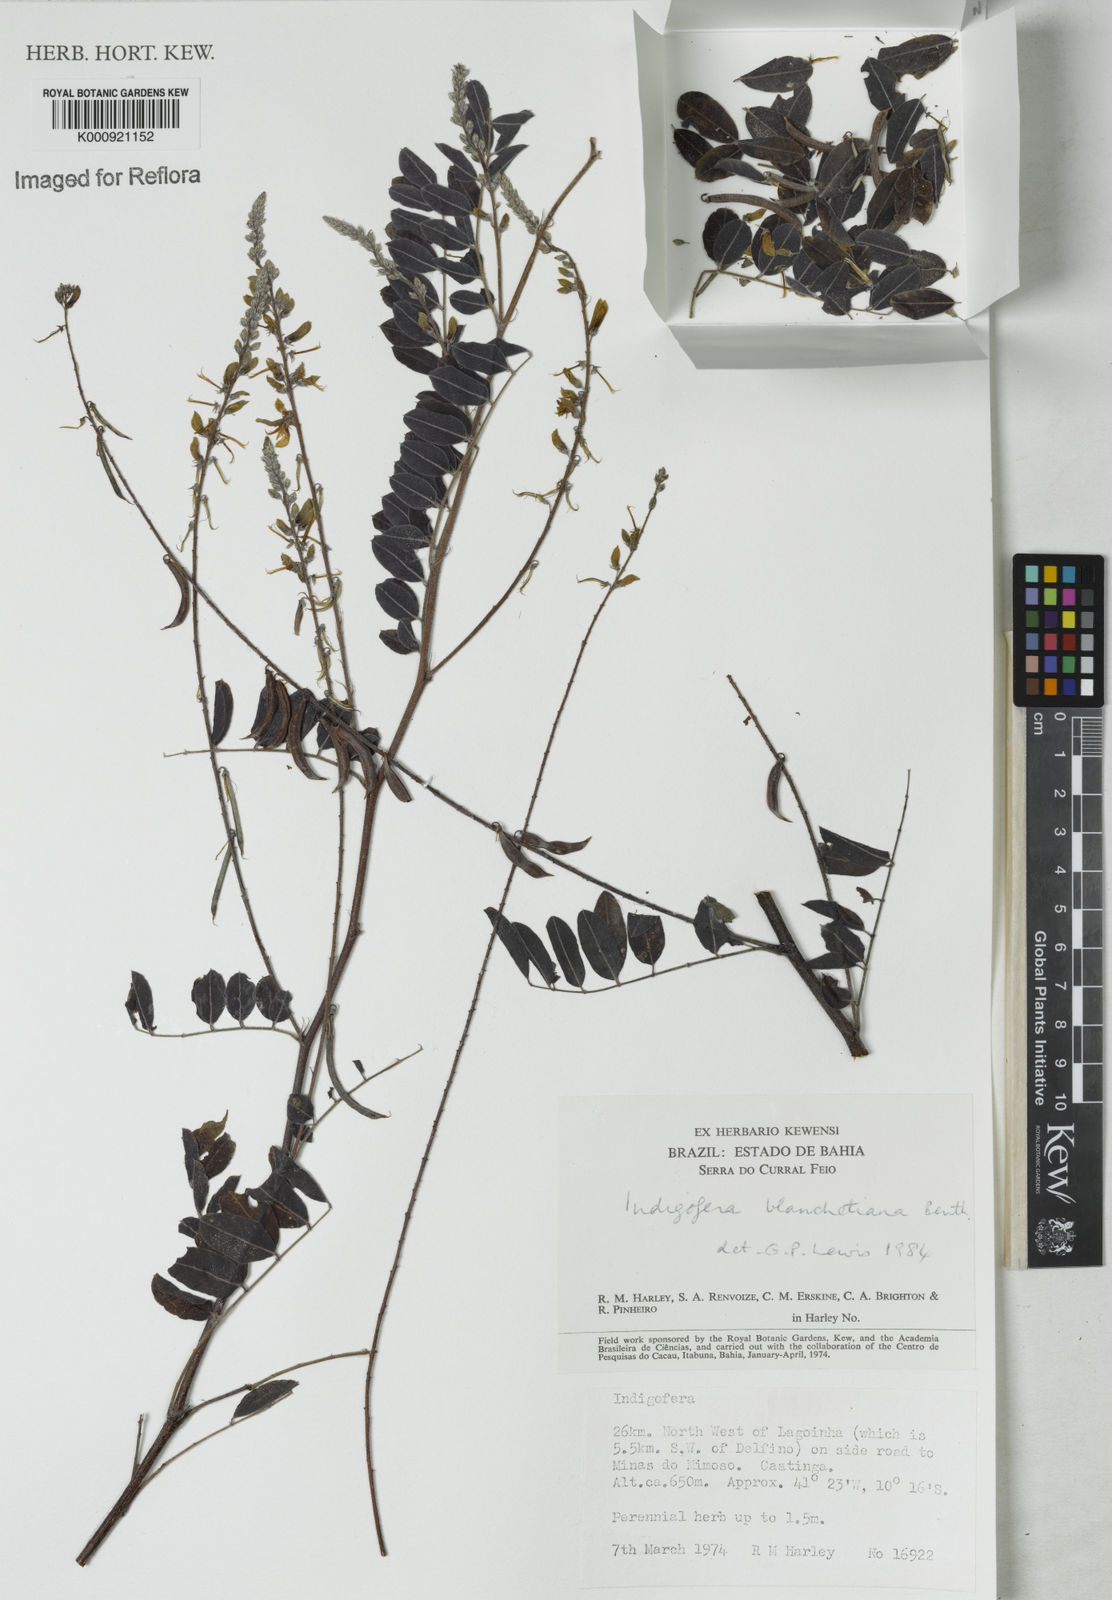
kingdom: Plantae
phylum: Tracheophyta
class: Magnoliopsida
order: Fabales
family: Fabaceae
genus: Indigofera
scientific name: Indigofera blanchetiana
